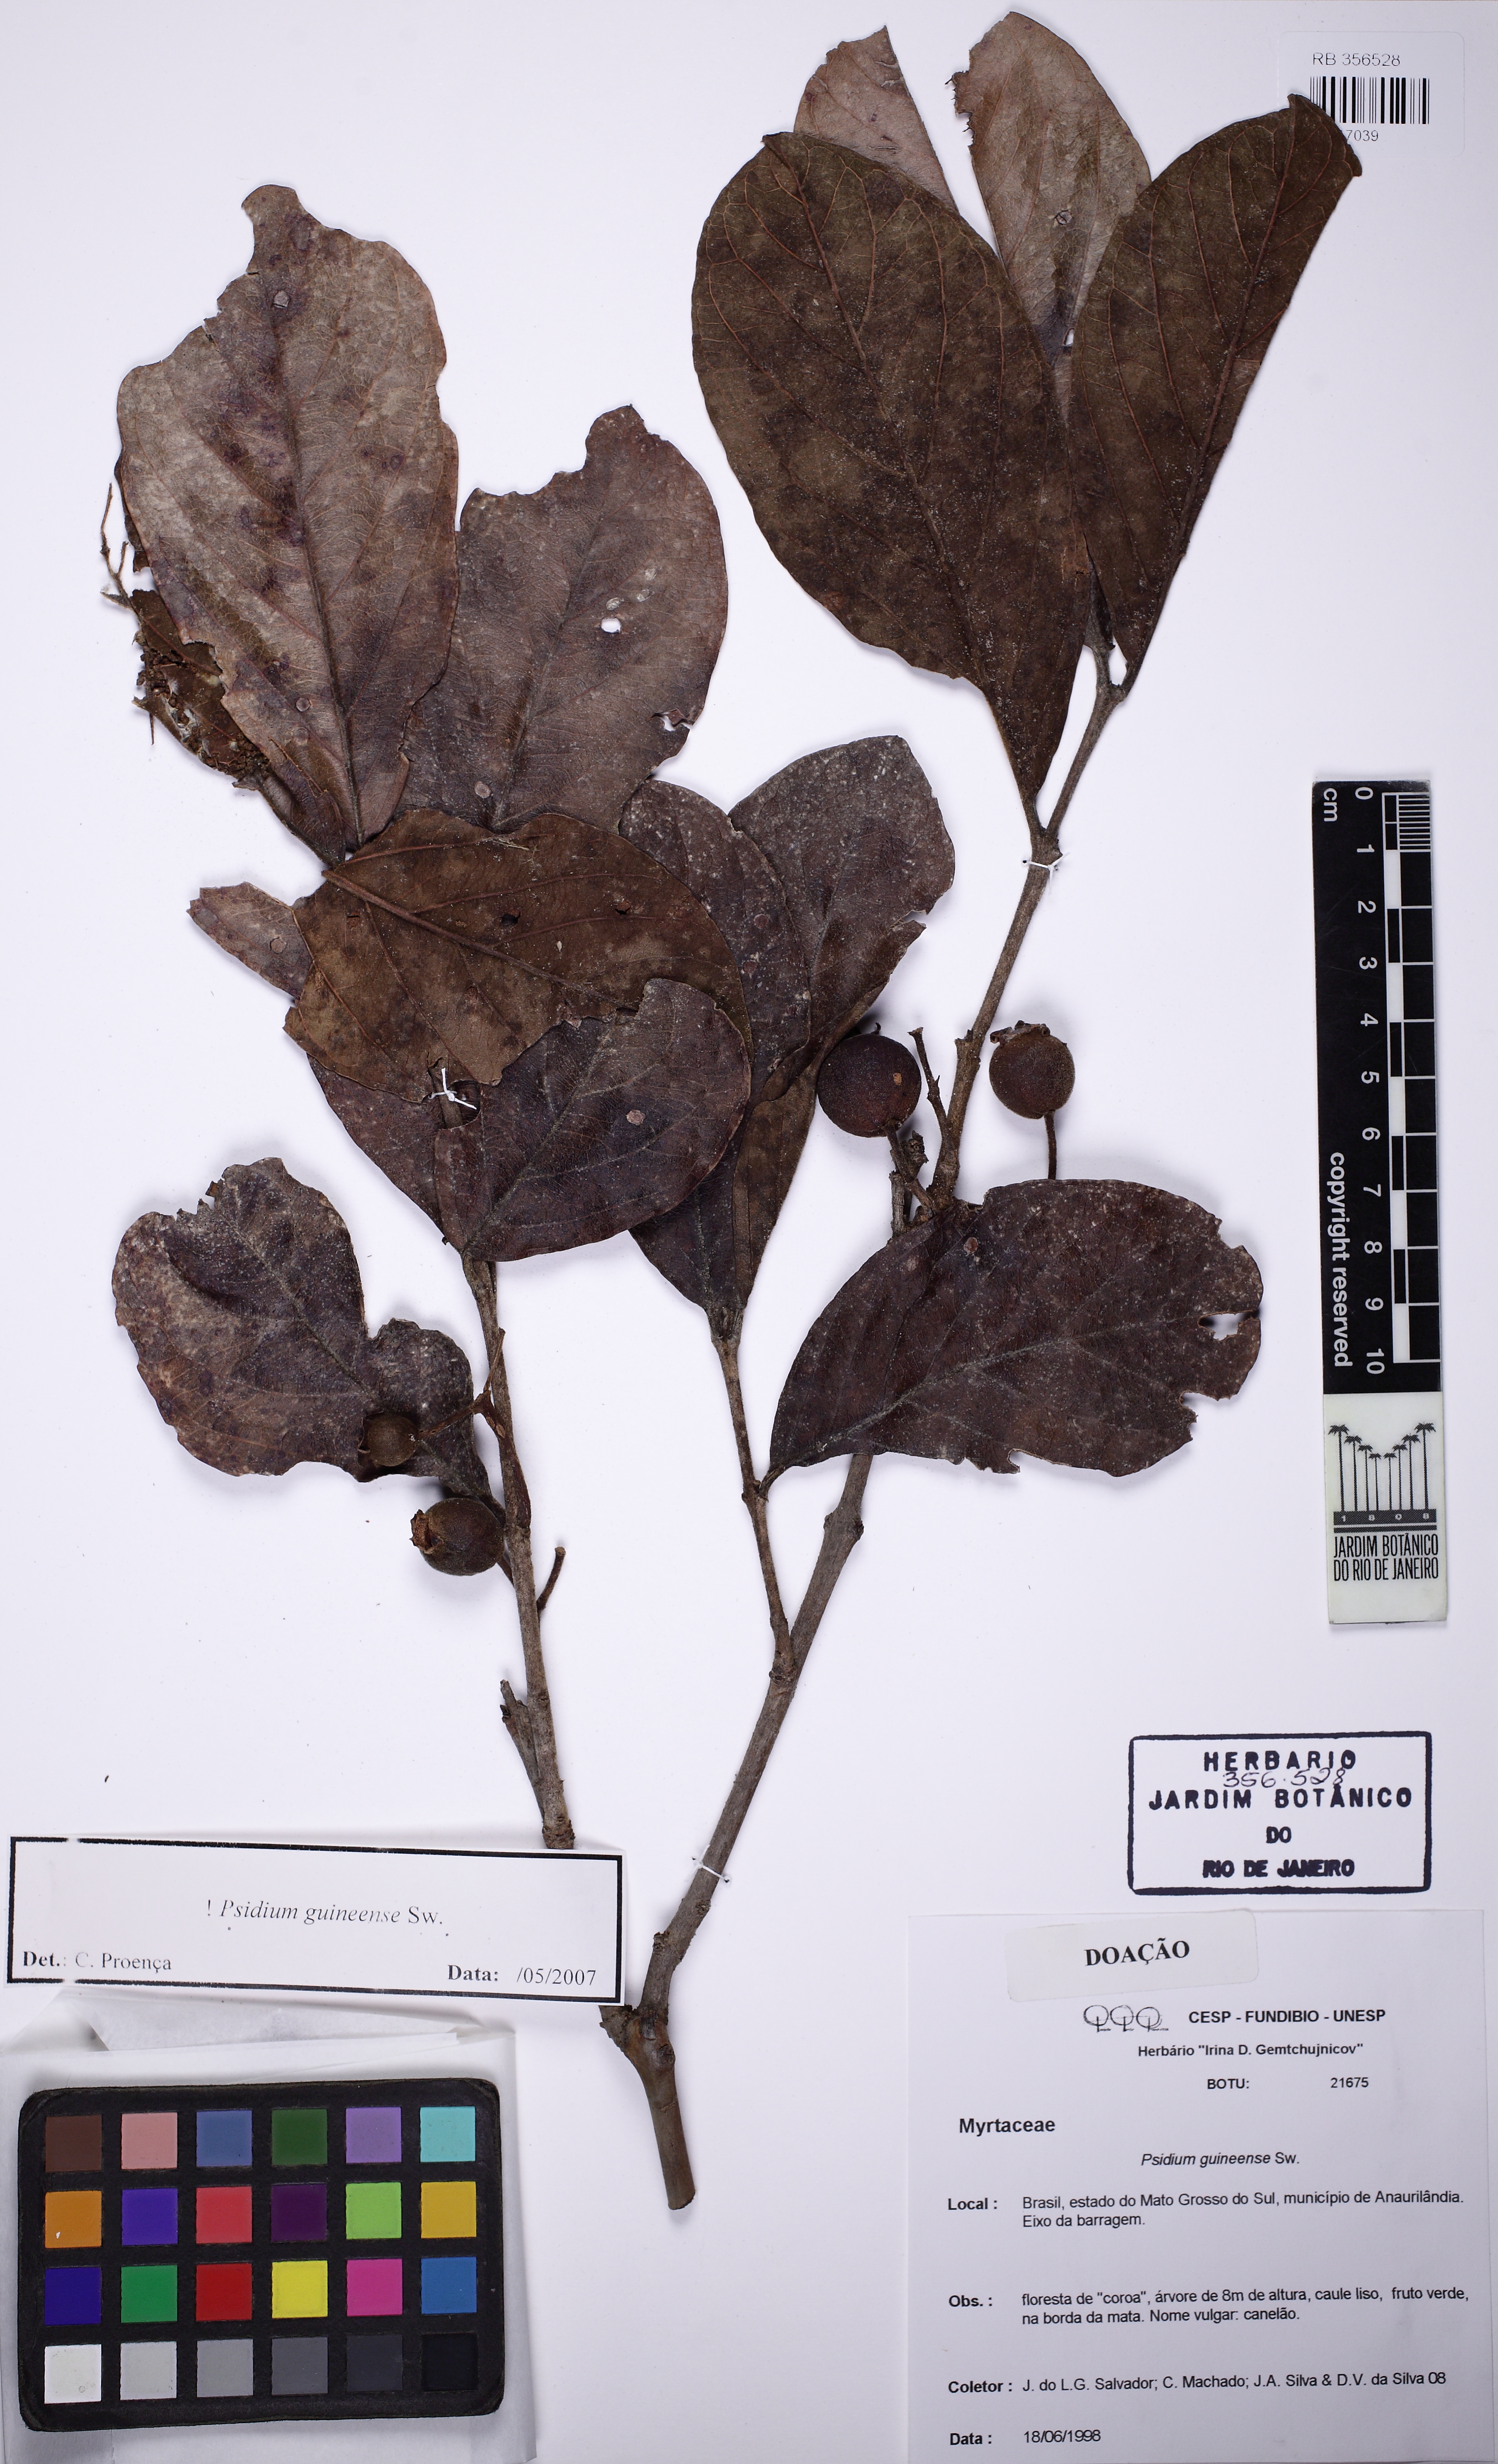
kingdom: Plantae
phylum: Tracheophyta
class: Magnoliopsida
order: Myrtales
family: Myrtaceae
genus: Psidium
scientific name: Psidium guineense
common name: Brazilian guava
